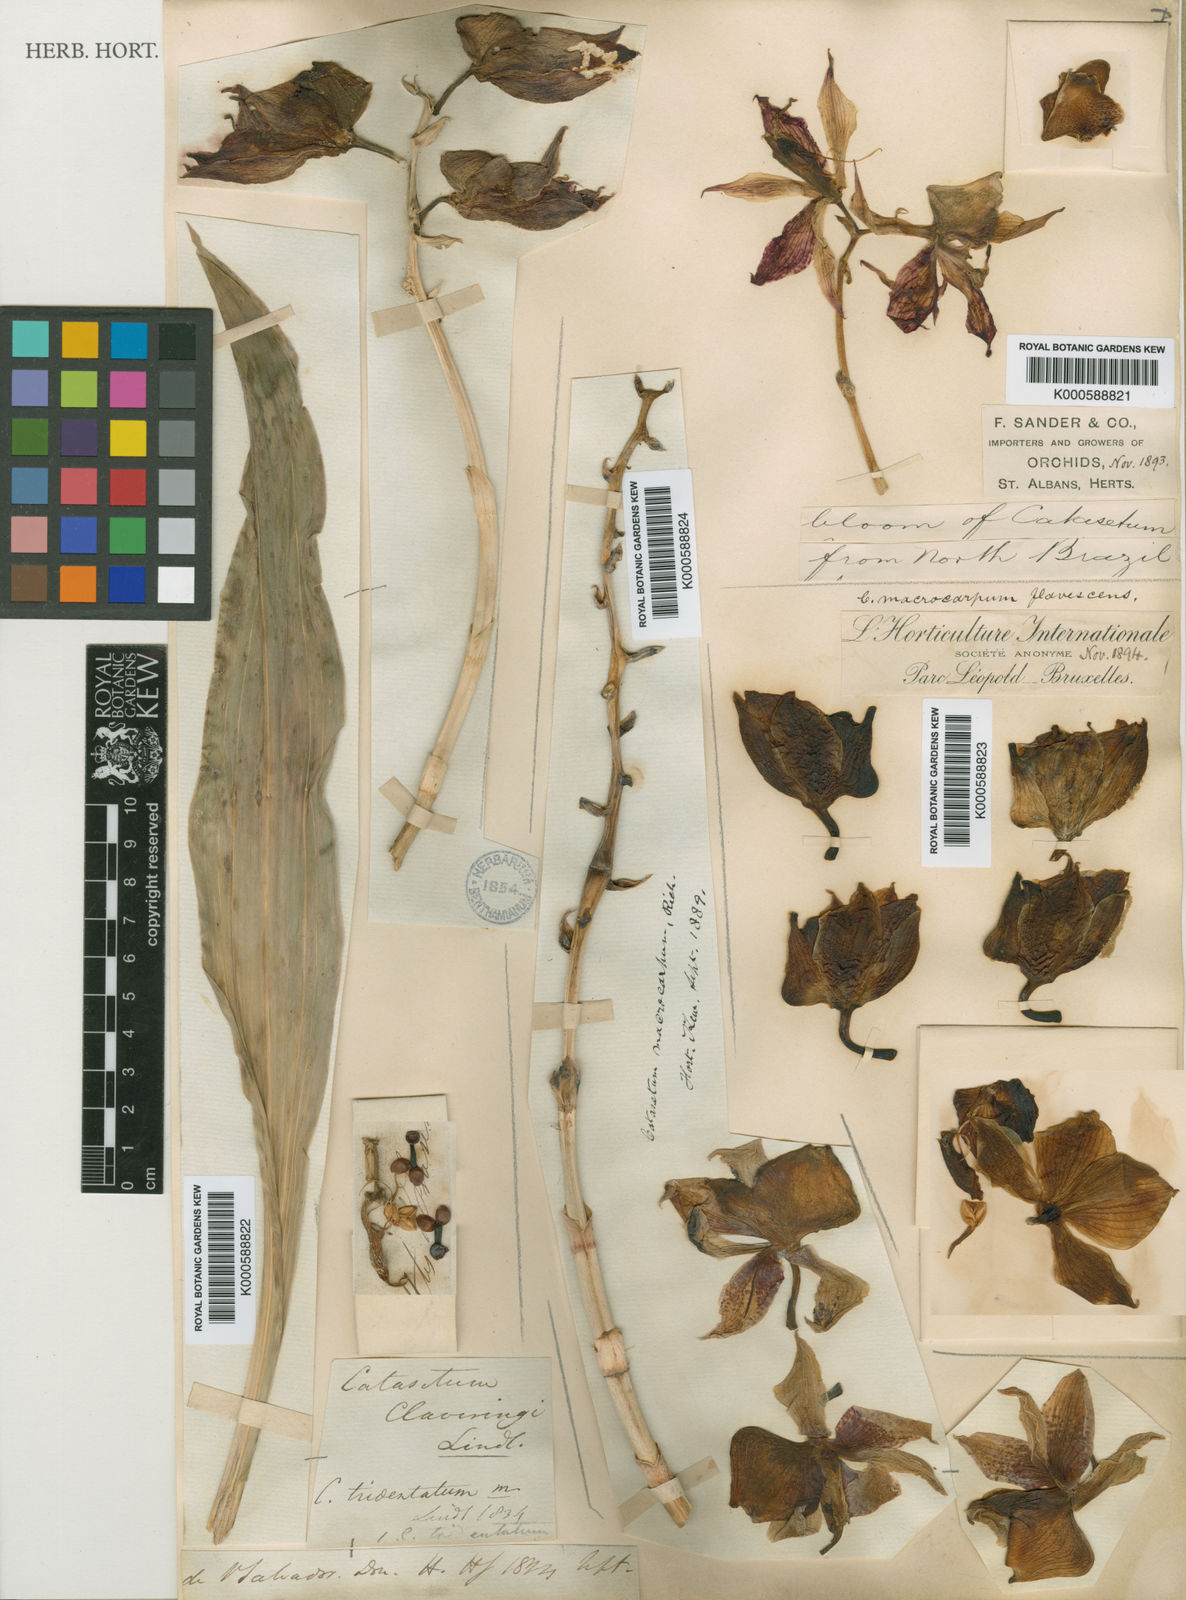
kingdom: Plantae
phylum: Tracheophyta
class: Liliopsida
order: Asparagales
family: Orchidaceae
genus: Catasetum
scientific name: Catasetum macrocarpum
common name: Jumping orchid
